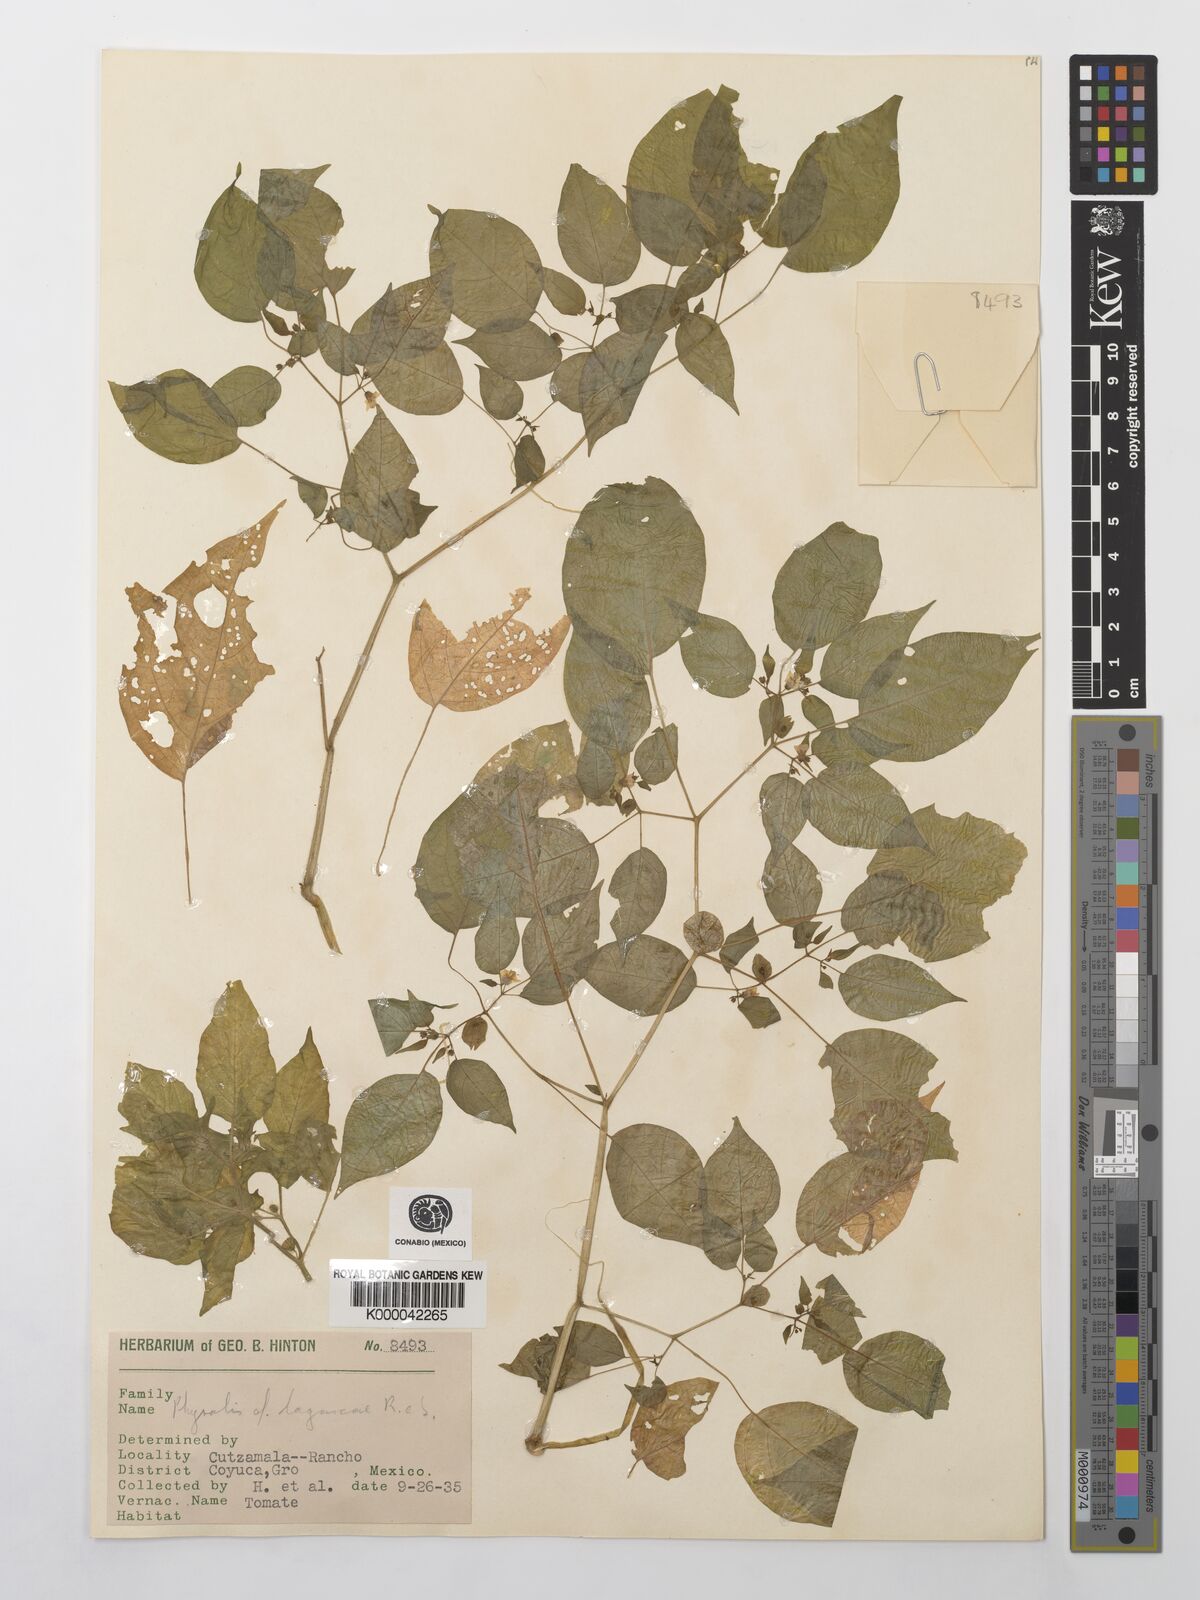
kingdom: Plantae
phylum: Tracheophyta
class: Magnoliopsida
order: Solanales
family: Solanaceae
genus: Physalis
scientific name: Physalis lagascae
